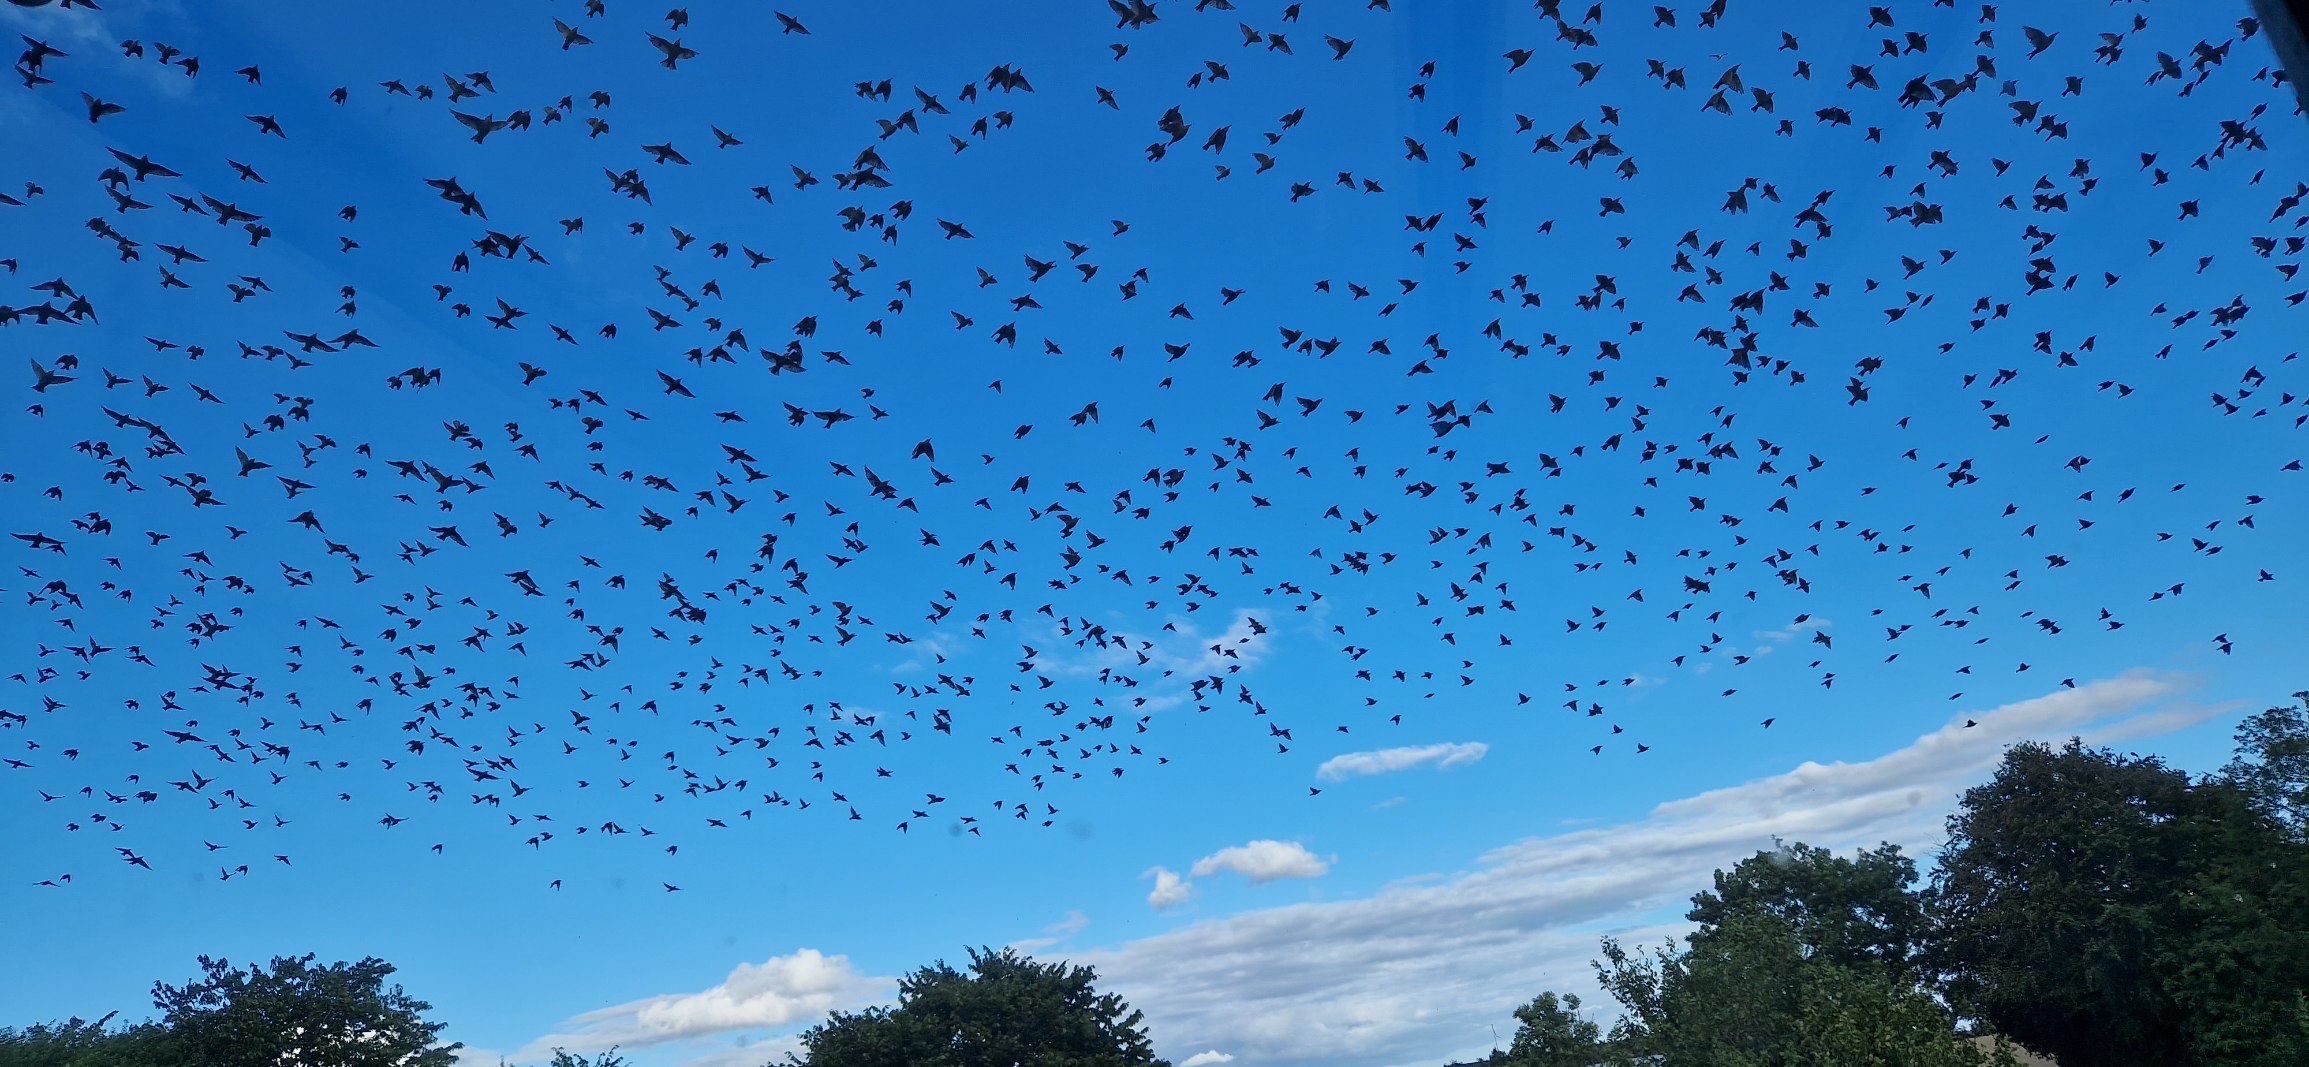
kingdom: Animalia
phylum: Chordata
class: Aves
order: Passeriformes
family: Sturnidae
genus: Sturnus
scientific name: Sturnus vulgaris
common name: Stær
